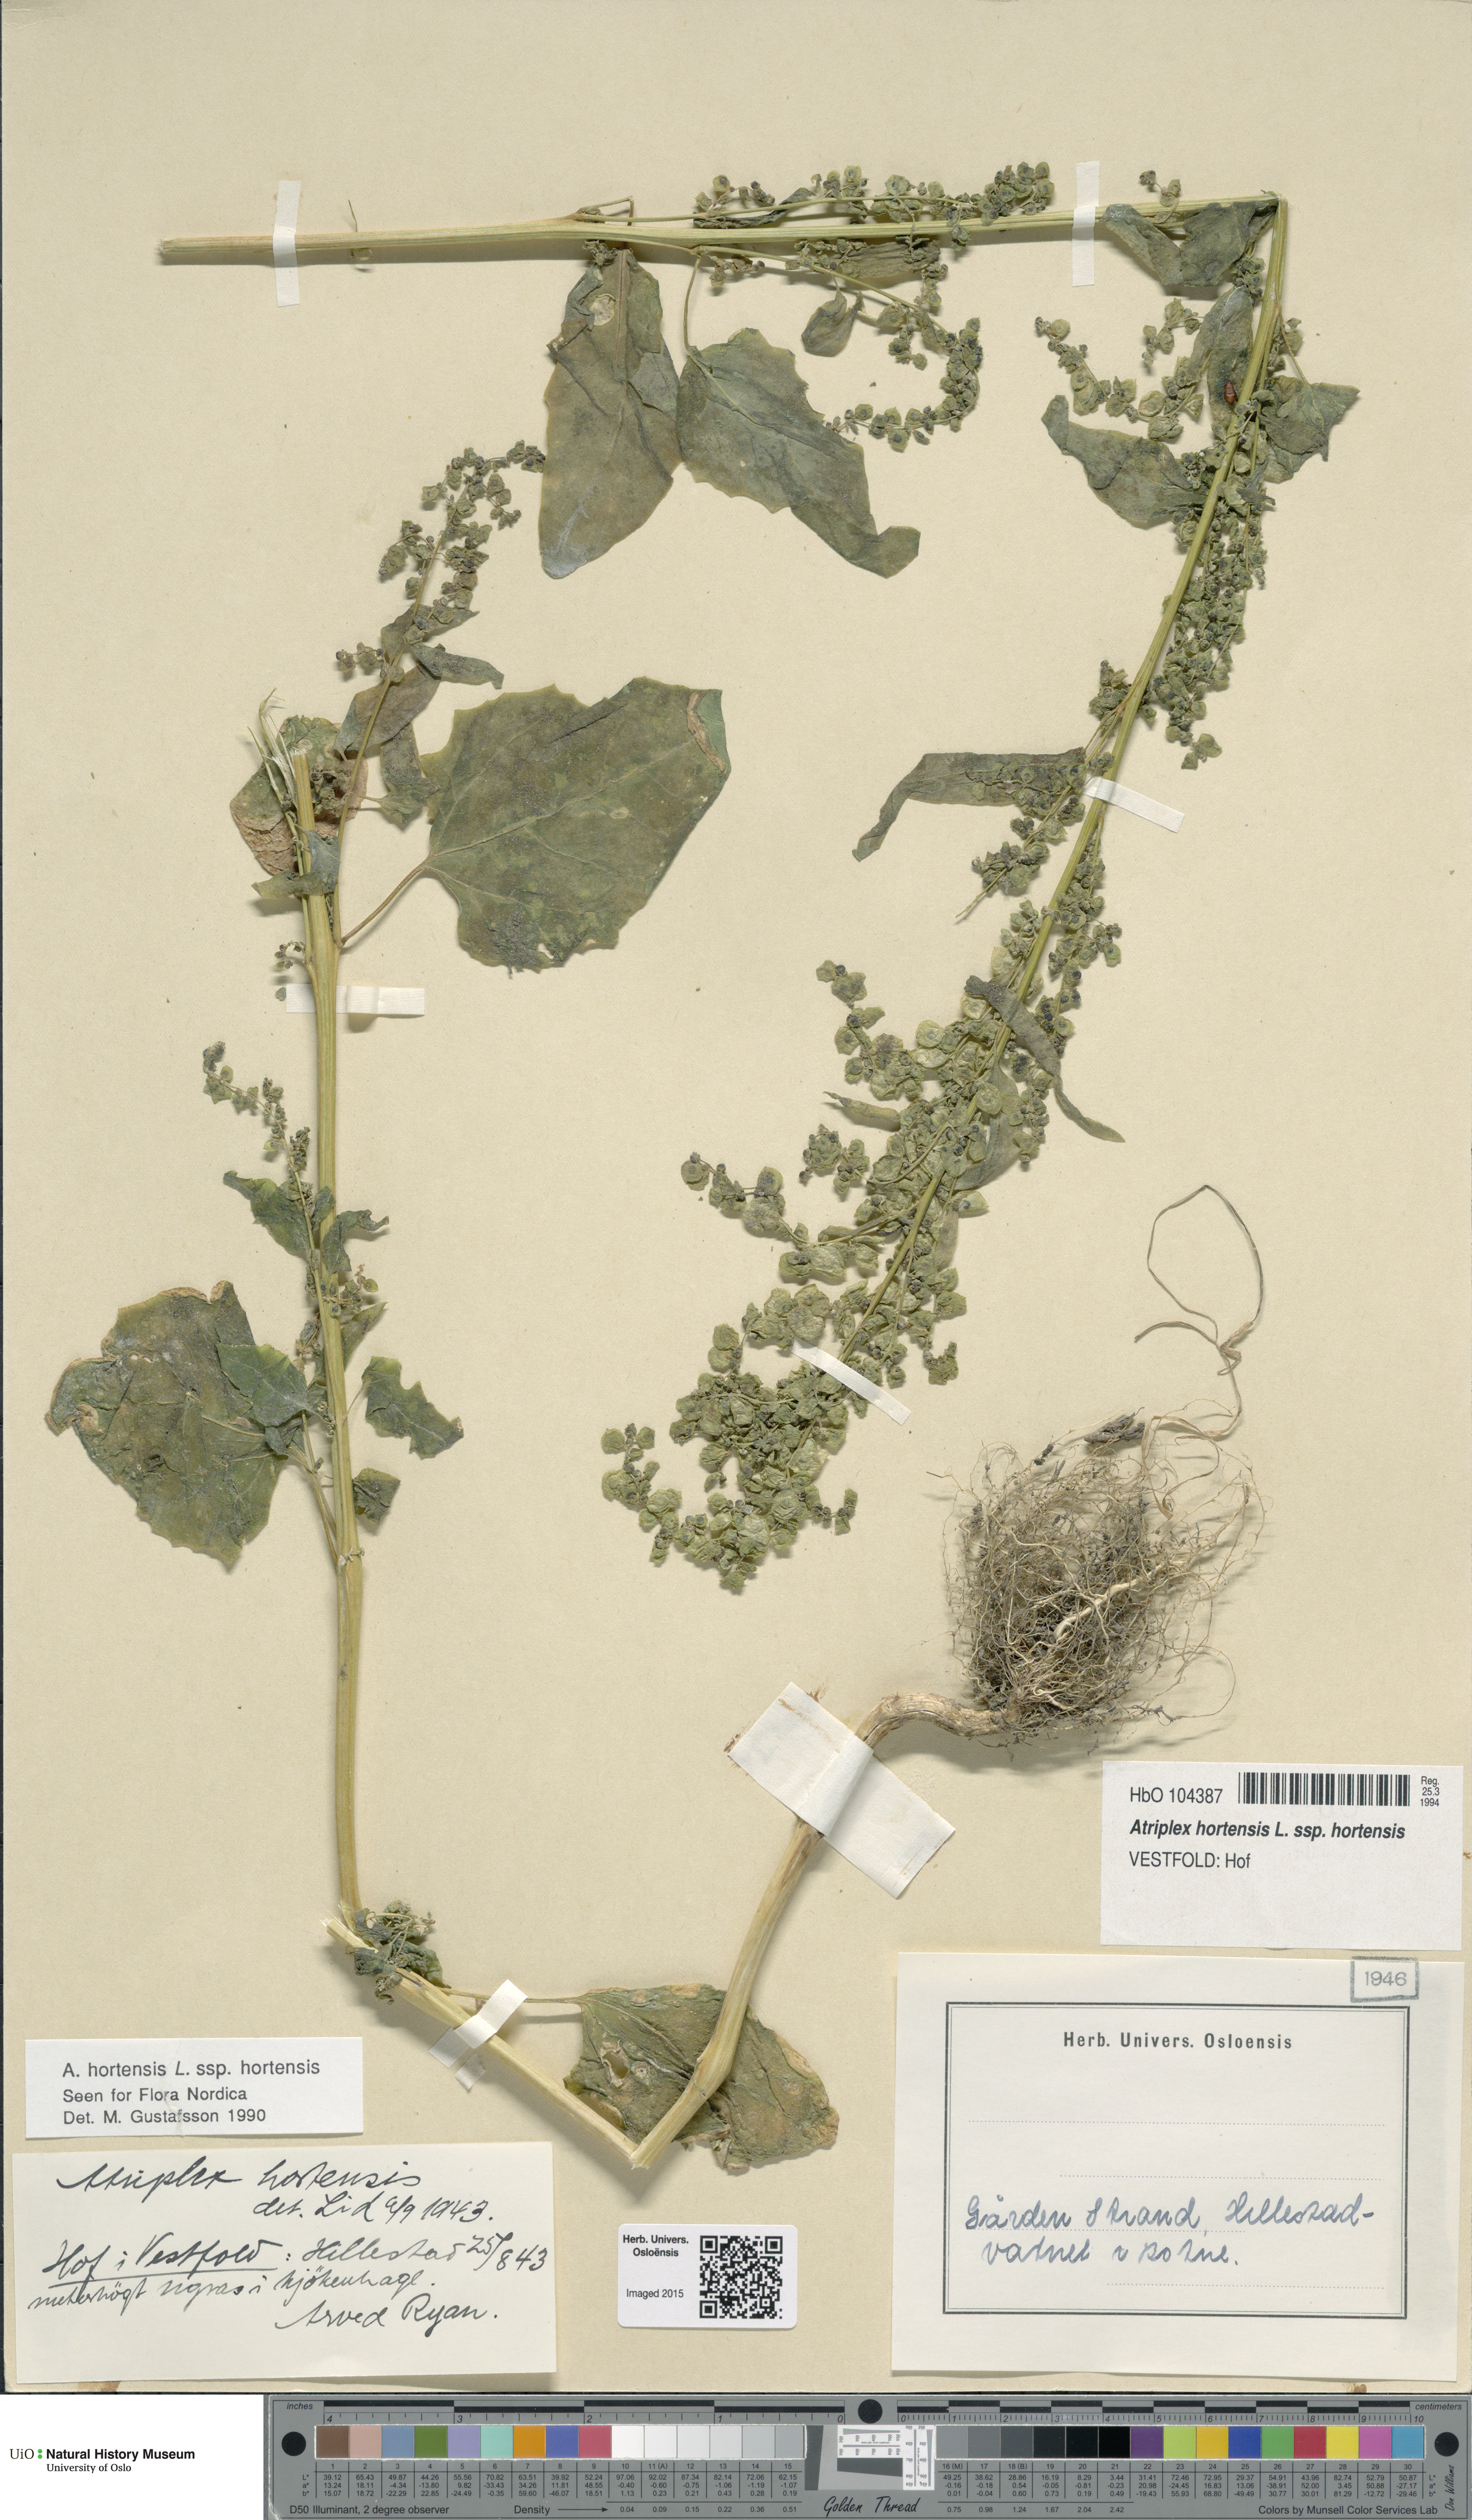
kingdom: Plantae
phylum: Tracheophyta
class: Magnoliopsida
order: Caryophyllales
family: Amaranthaceae
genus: Atriplex
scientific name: Atriplex hortensis
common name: Garden orache
